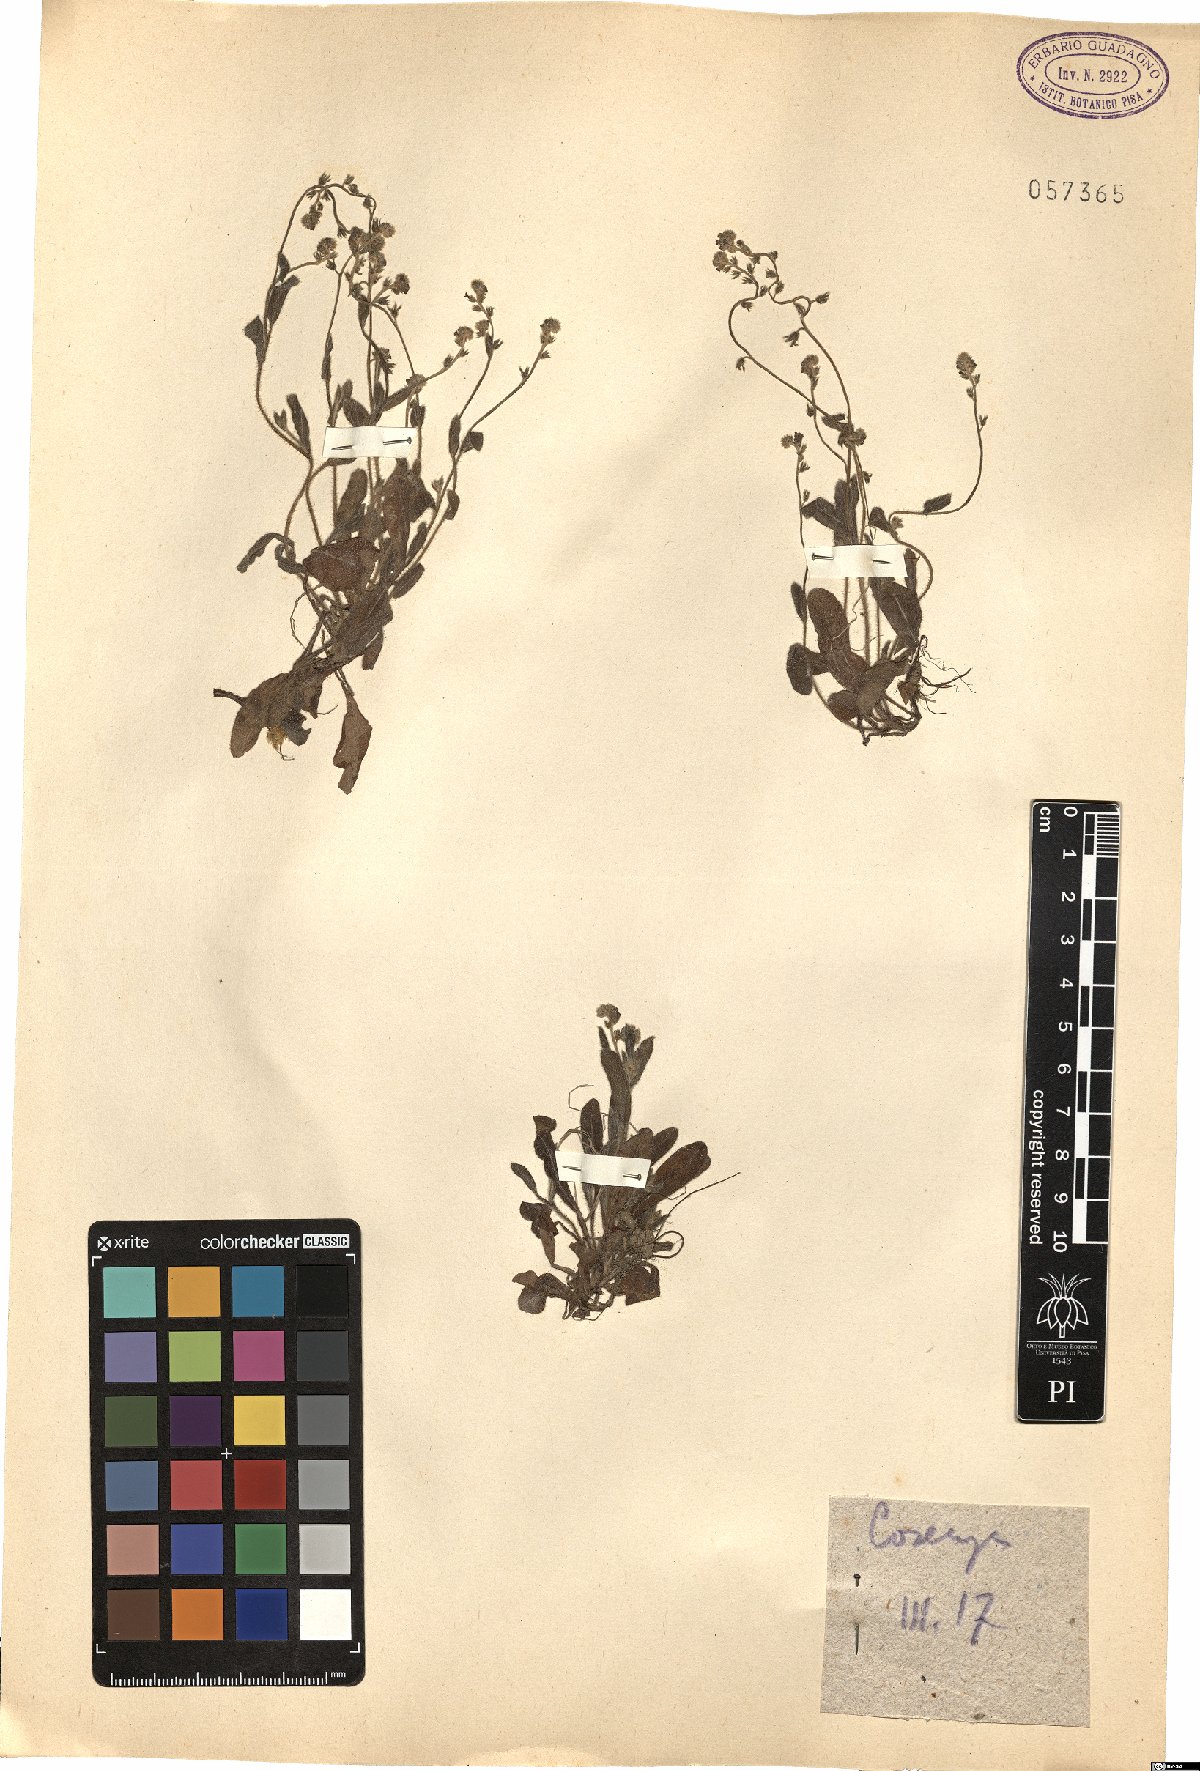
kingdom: Plantae
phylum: Tracheophyta
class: Magnoliopsida
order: Boraginales
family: Boraginaceae
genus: Myosotis
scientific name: Myosotis
